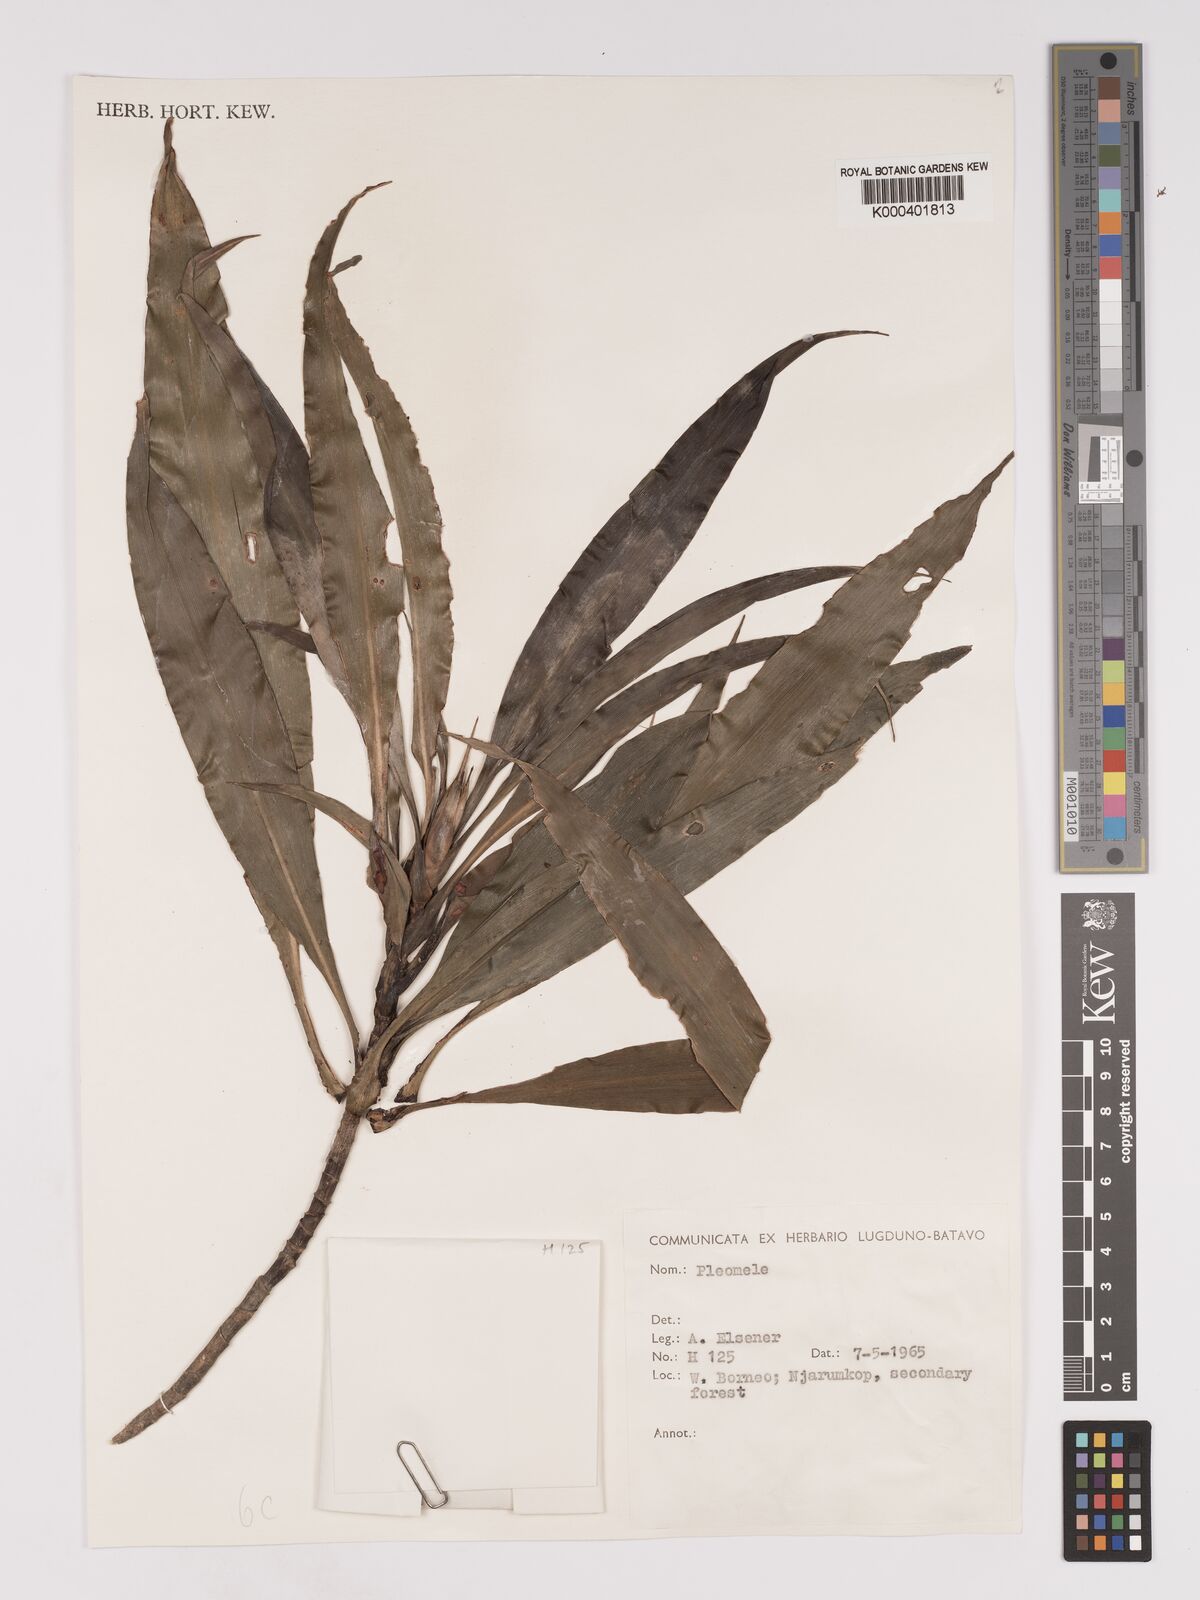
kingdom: Plantae
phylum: Tracheophyta
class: Liliopsida
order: Asparagales
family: Asparagaceae
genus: Dracaena
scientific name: Dracaena
